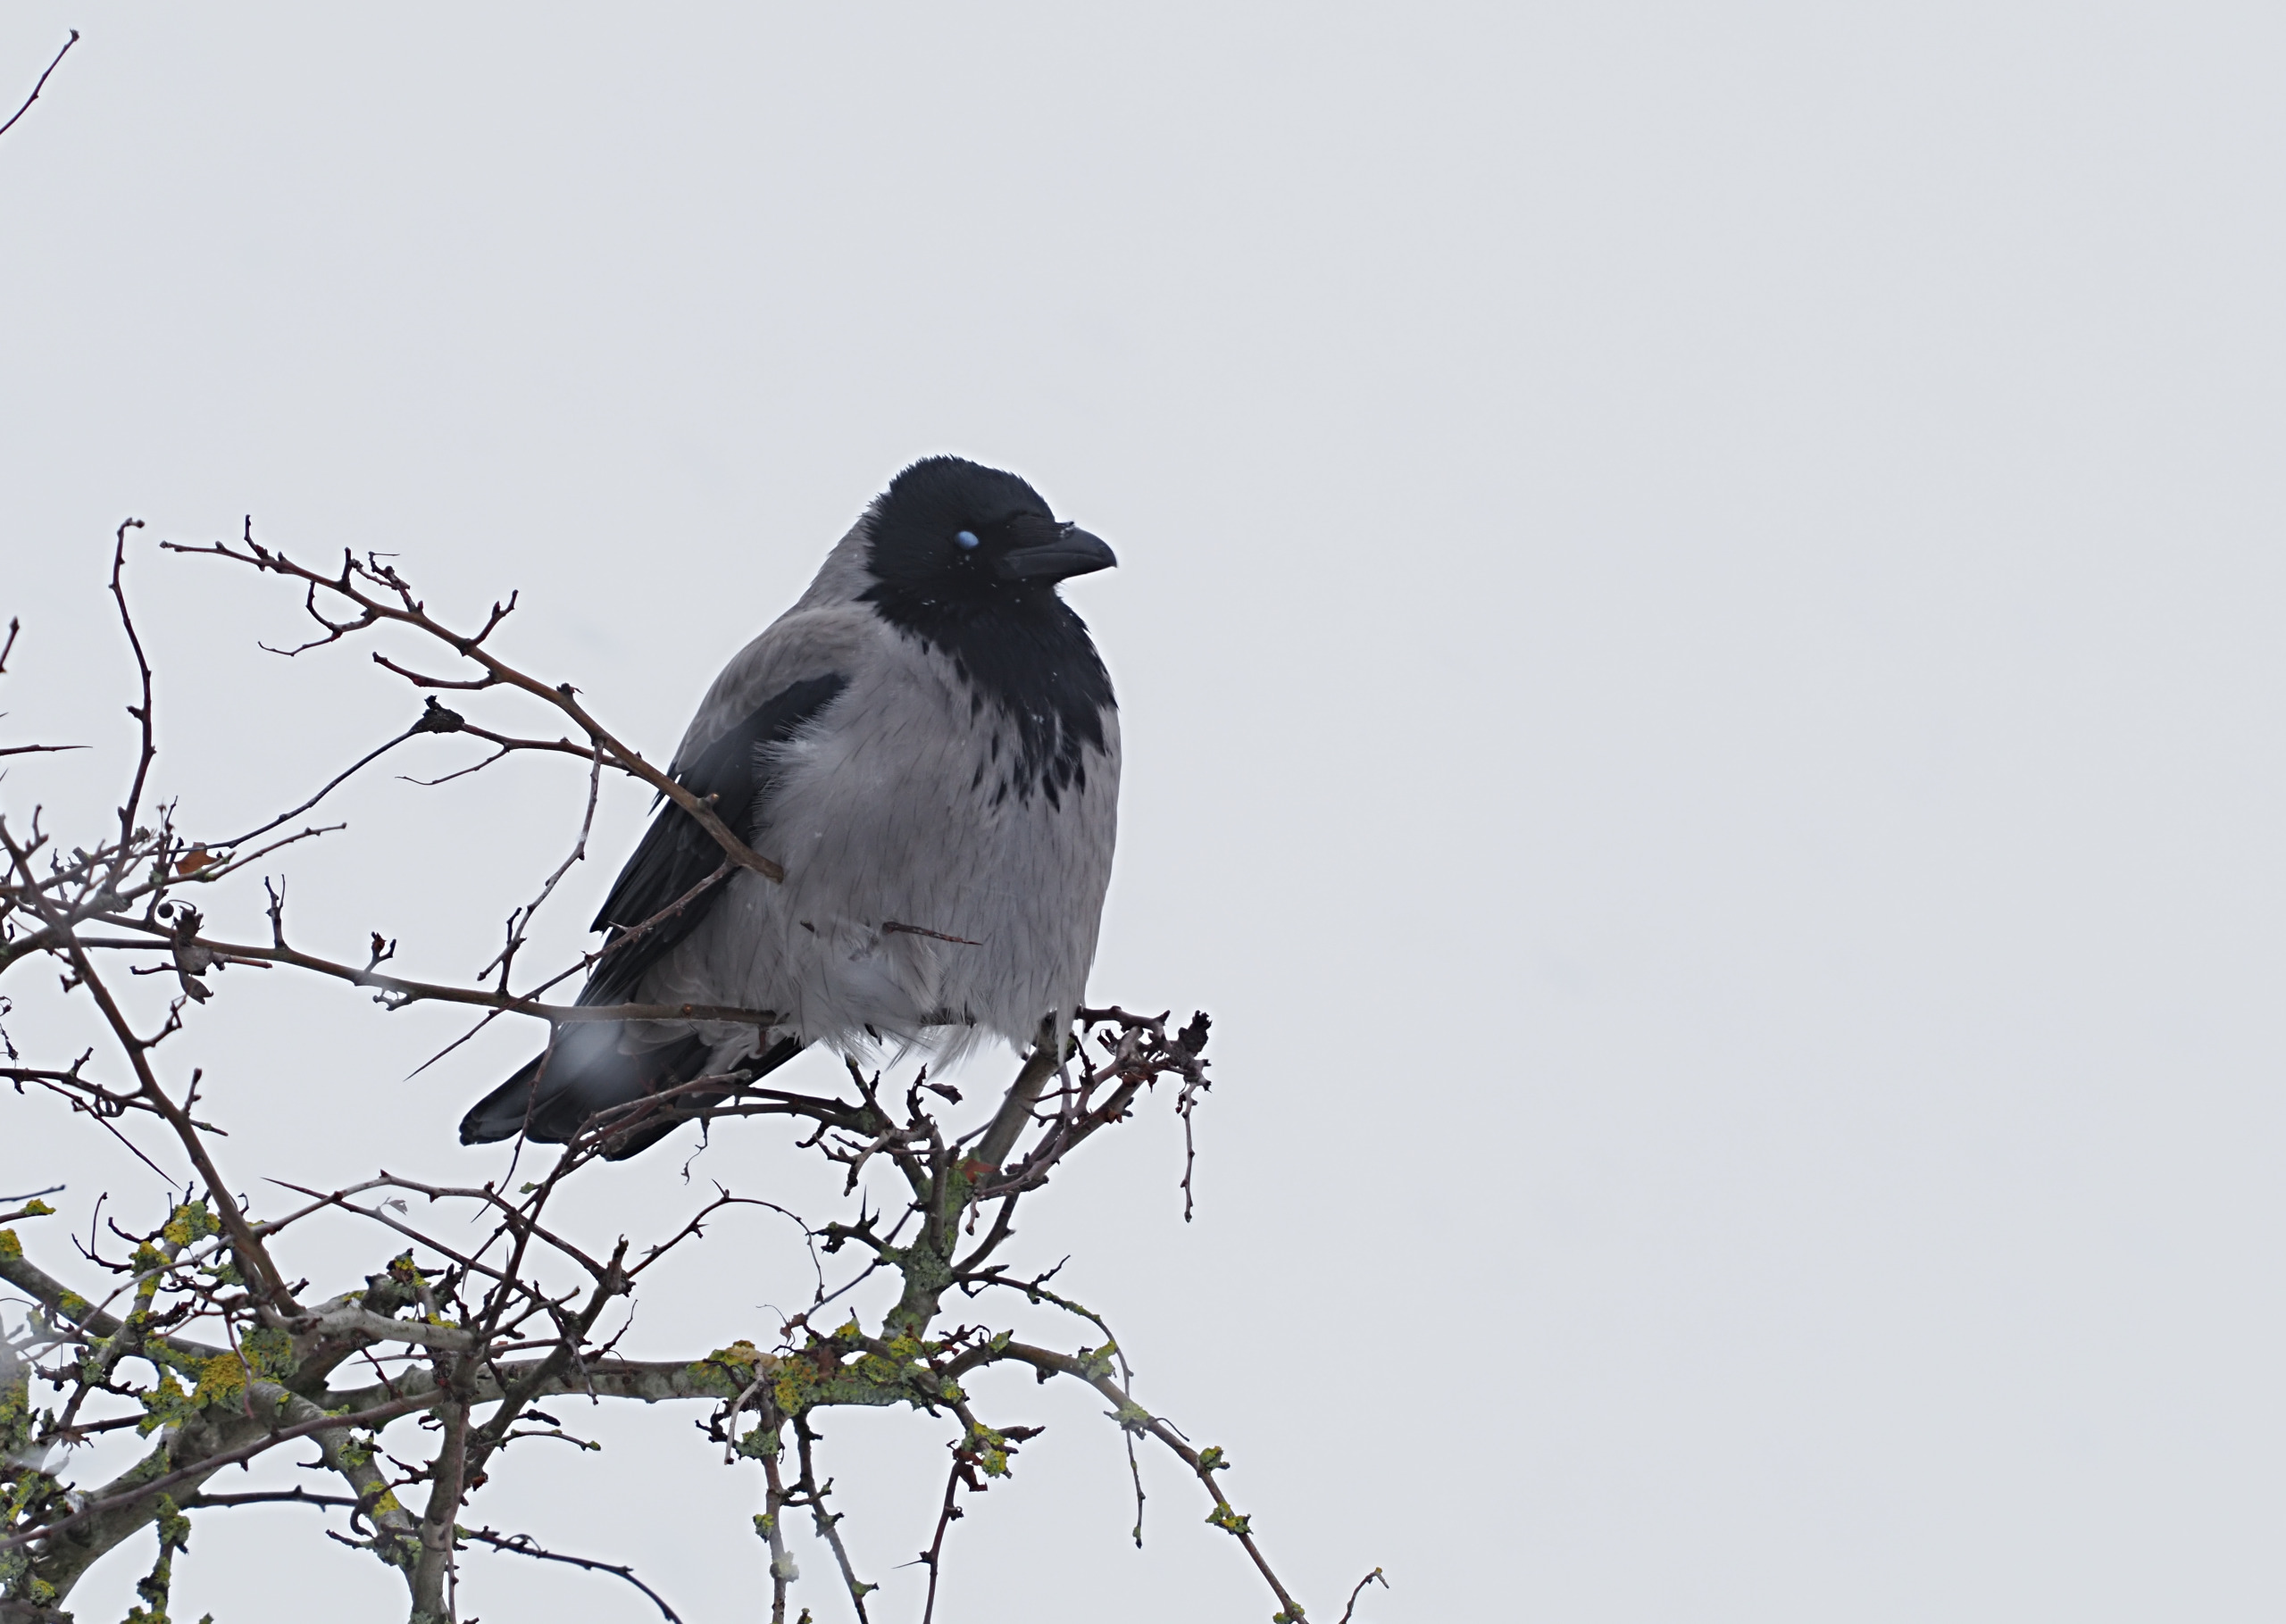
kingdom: Animalia
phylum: Chordata
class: Aves
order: Passeriformes
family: Corvidae
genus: Corvus
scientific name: Corvus cornix
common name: Gråkrage
